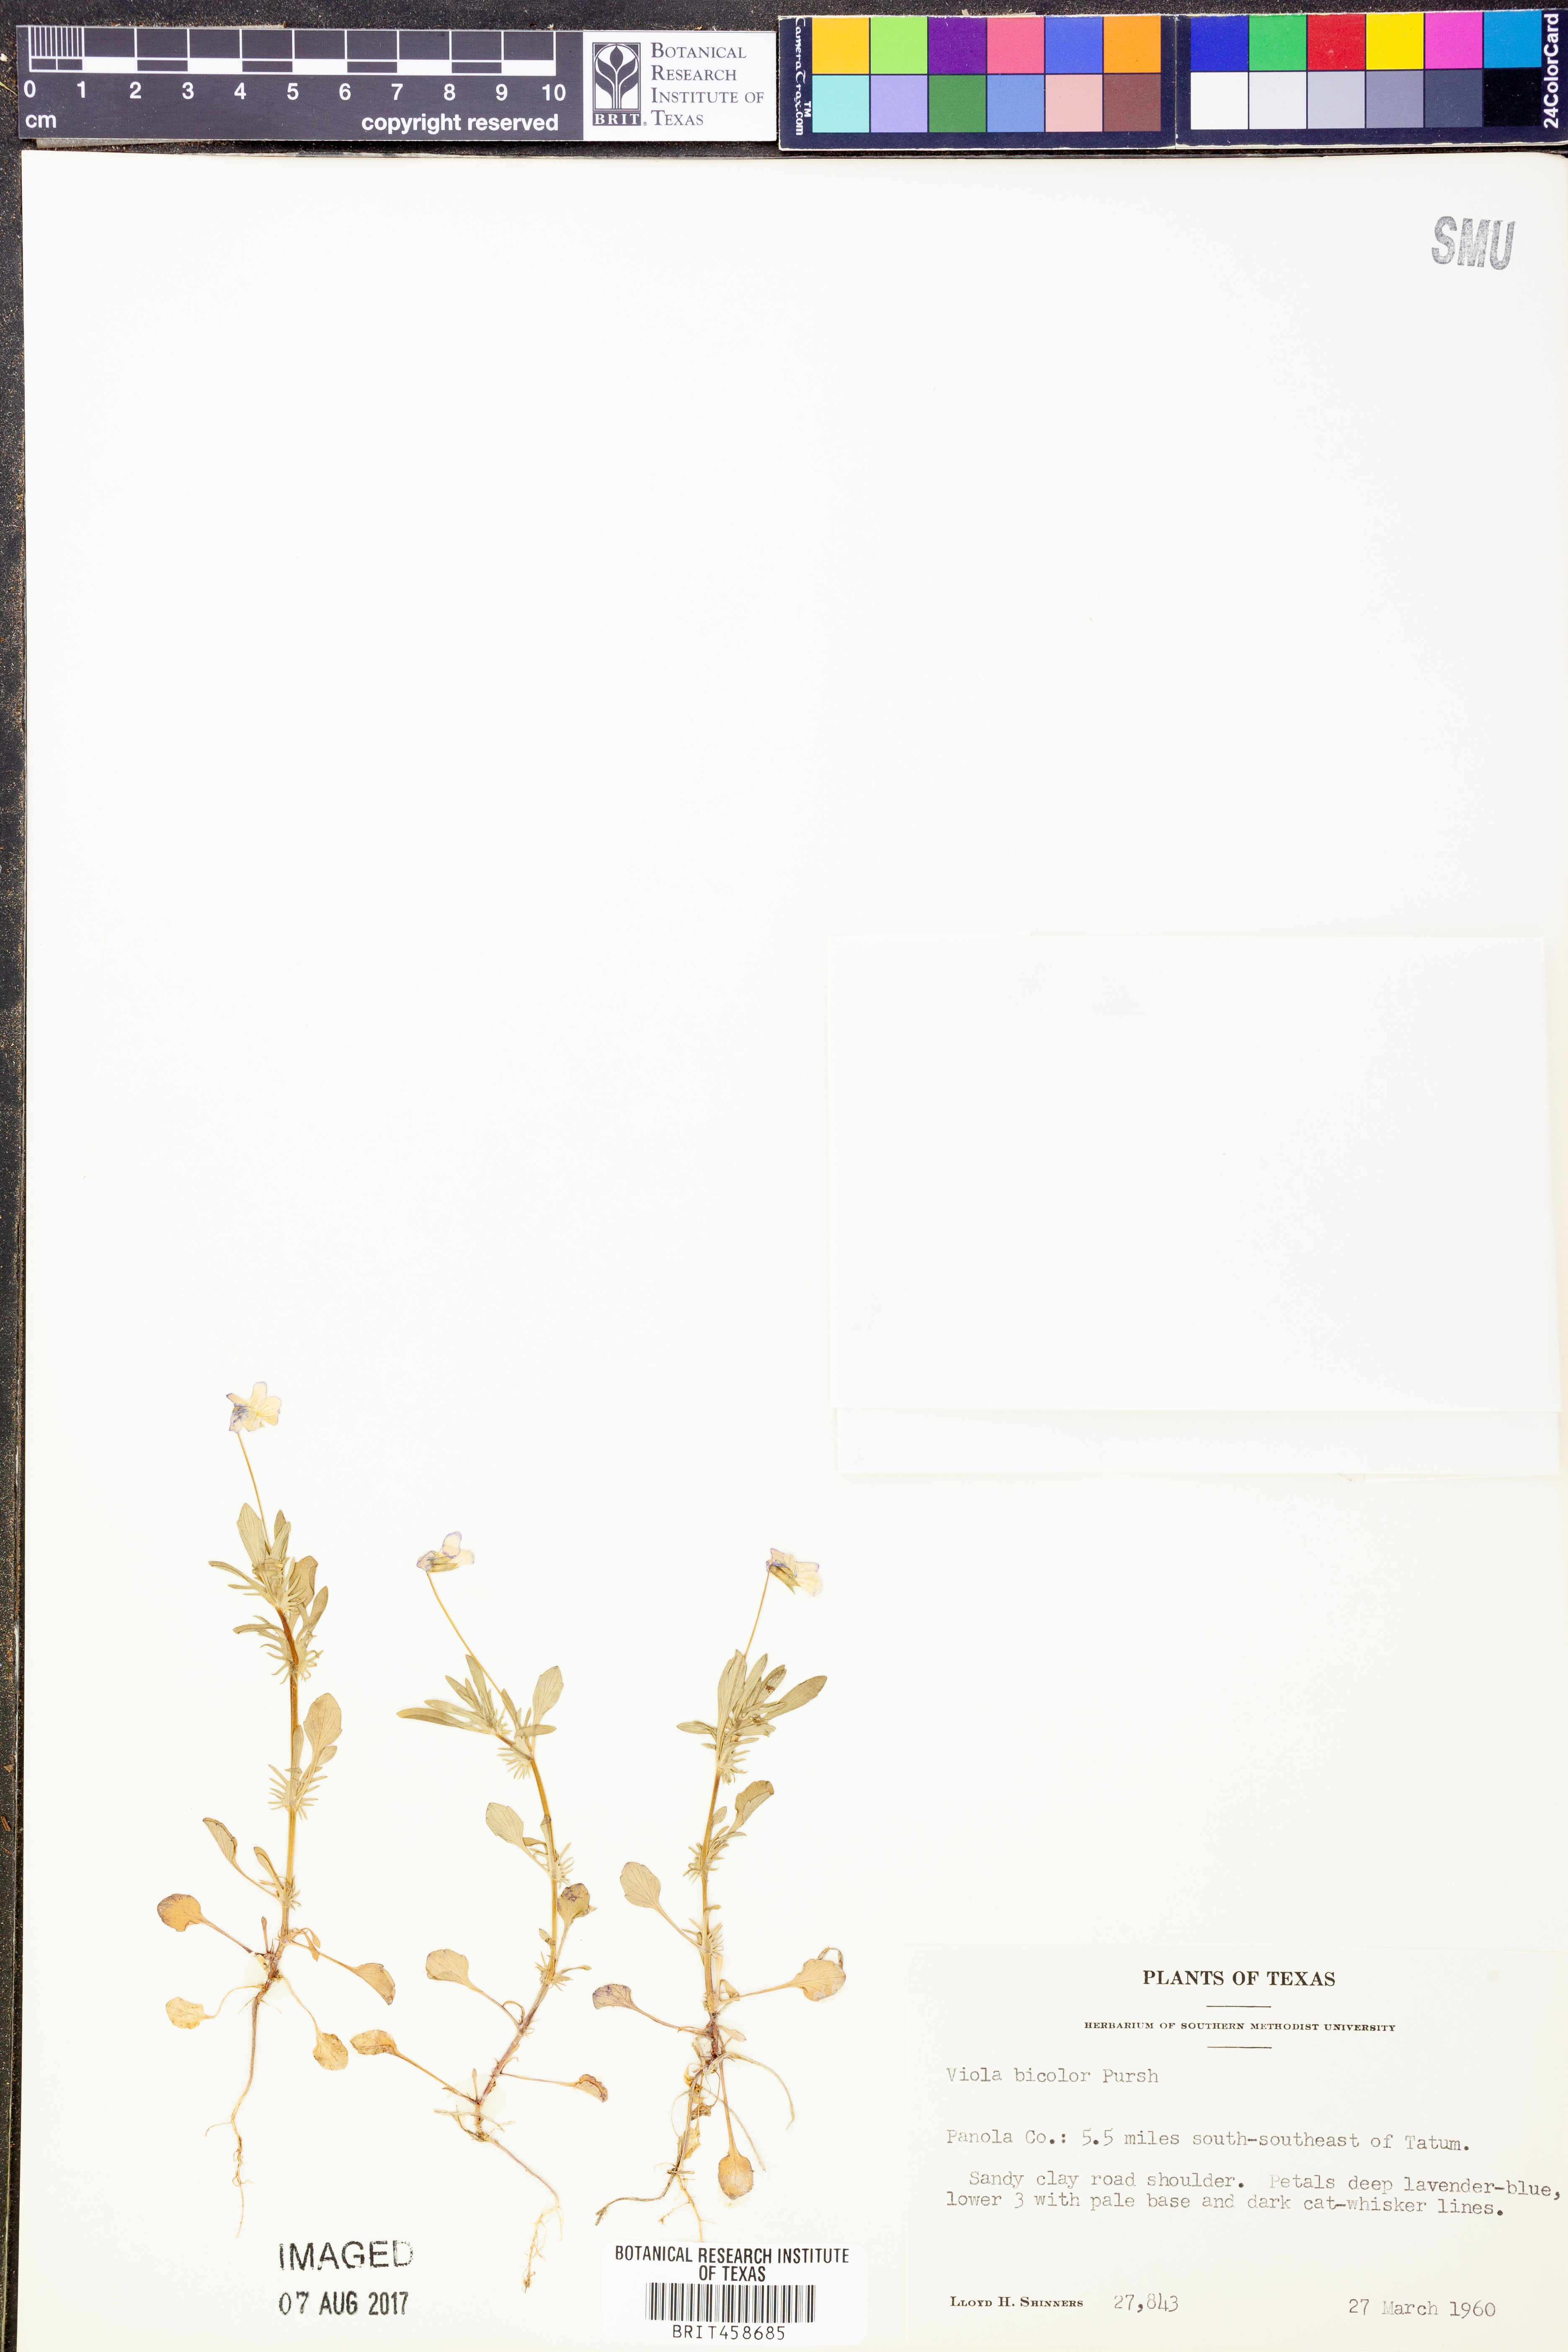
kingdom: Plantae
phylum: Tracheophyta
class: Magnoliopsida
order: Malpighiales
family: Violaceae
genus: Viola
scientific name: Viola rafinesquei
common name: American field pansy
